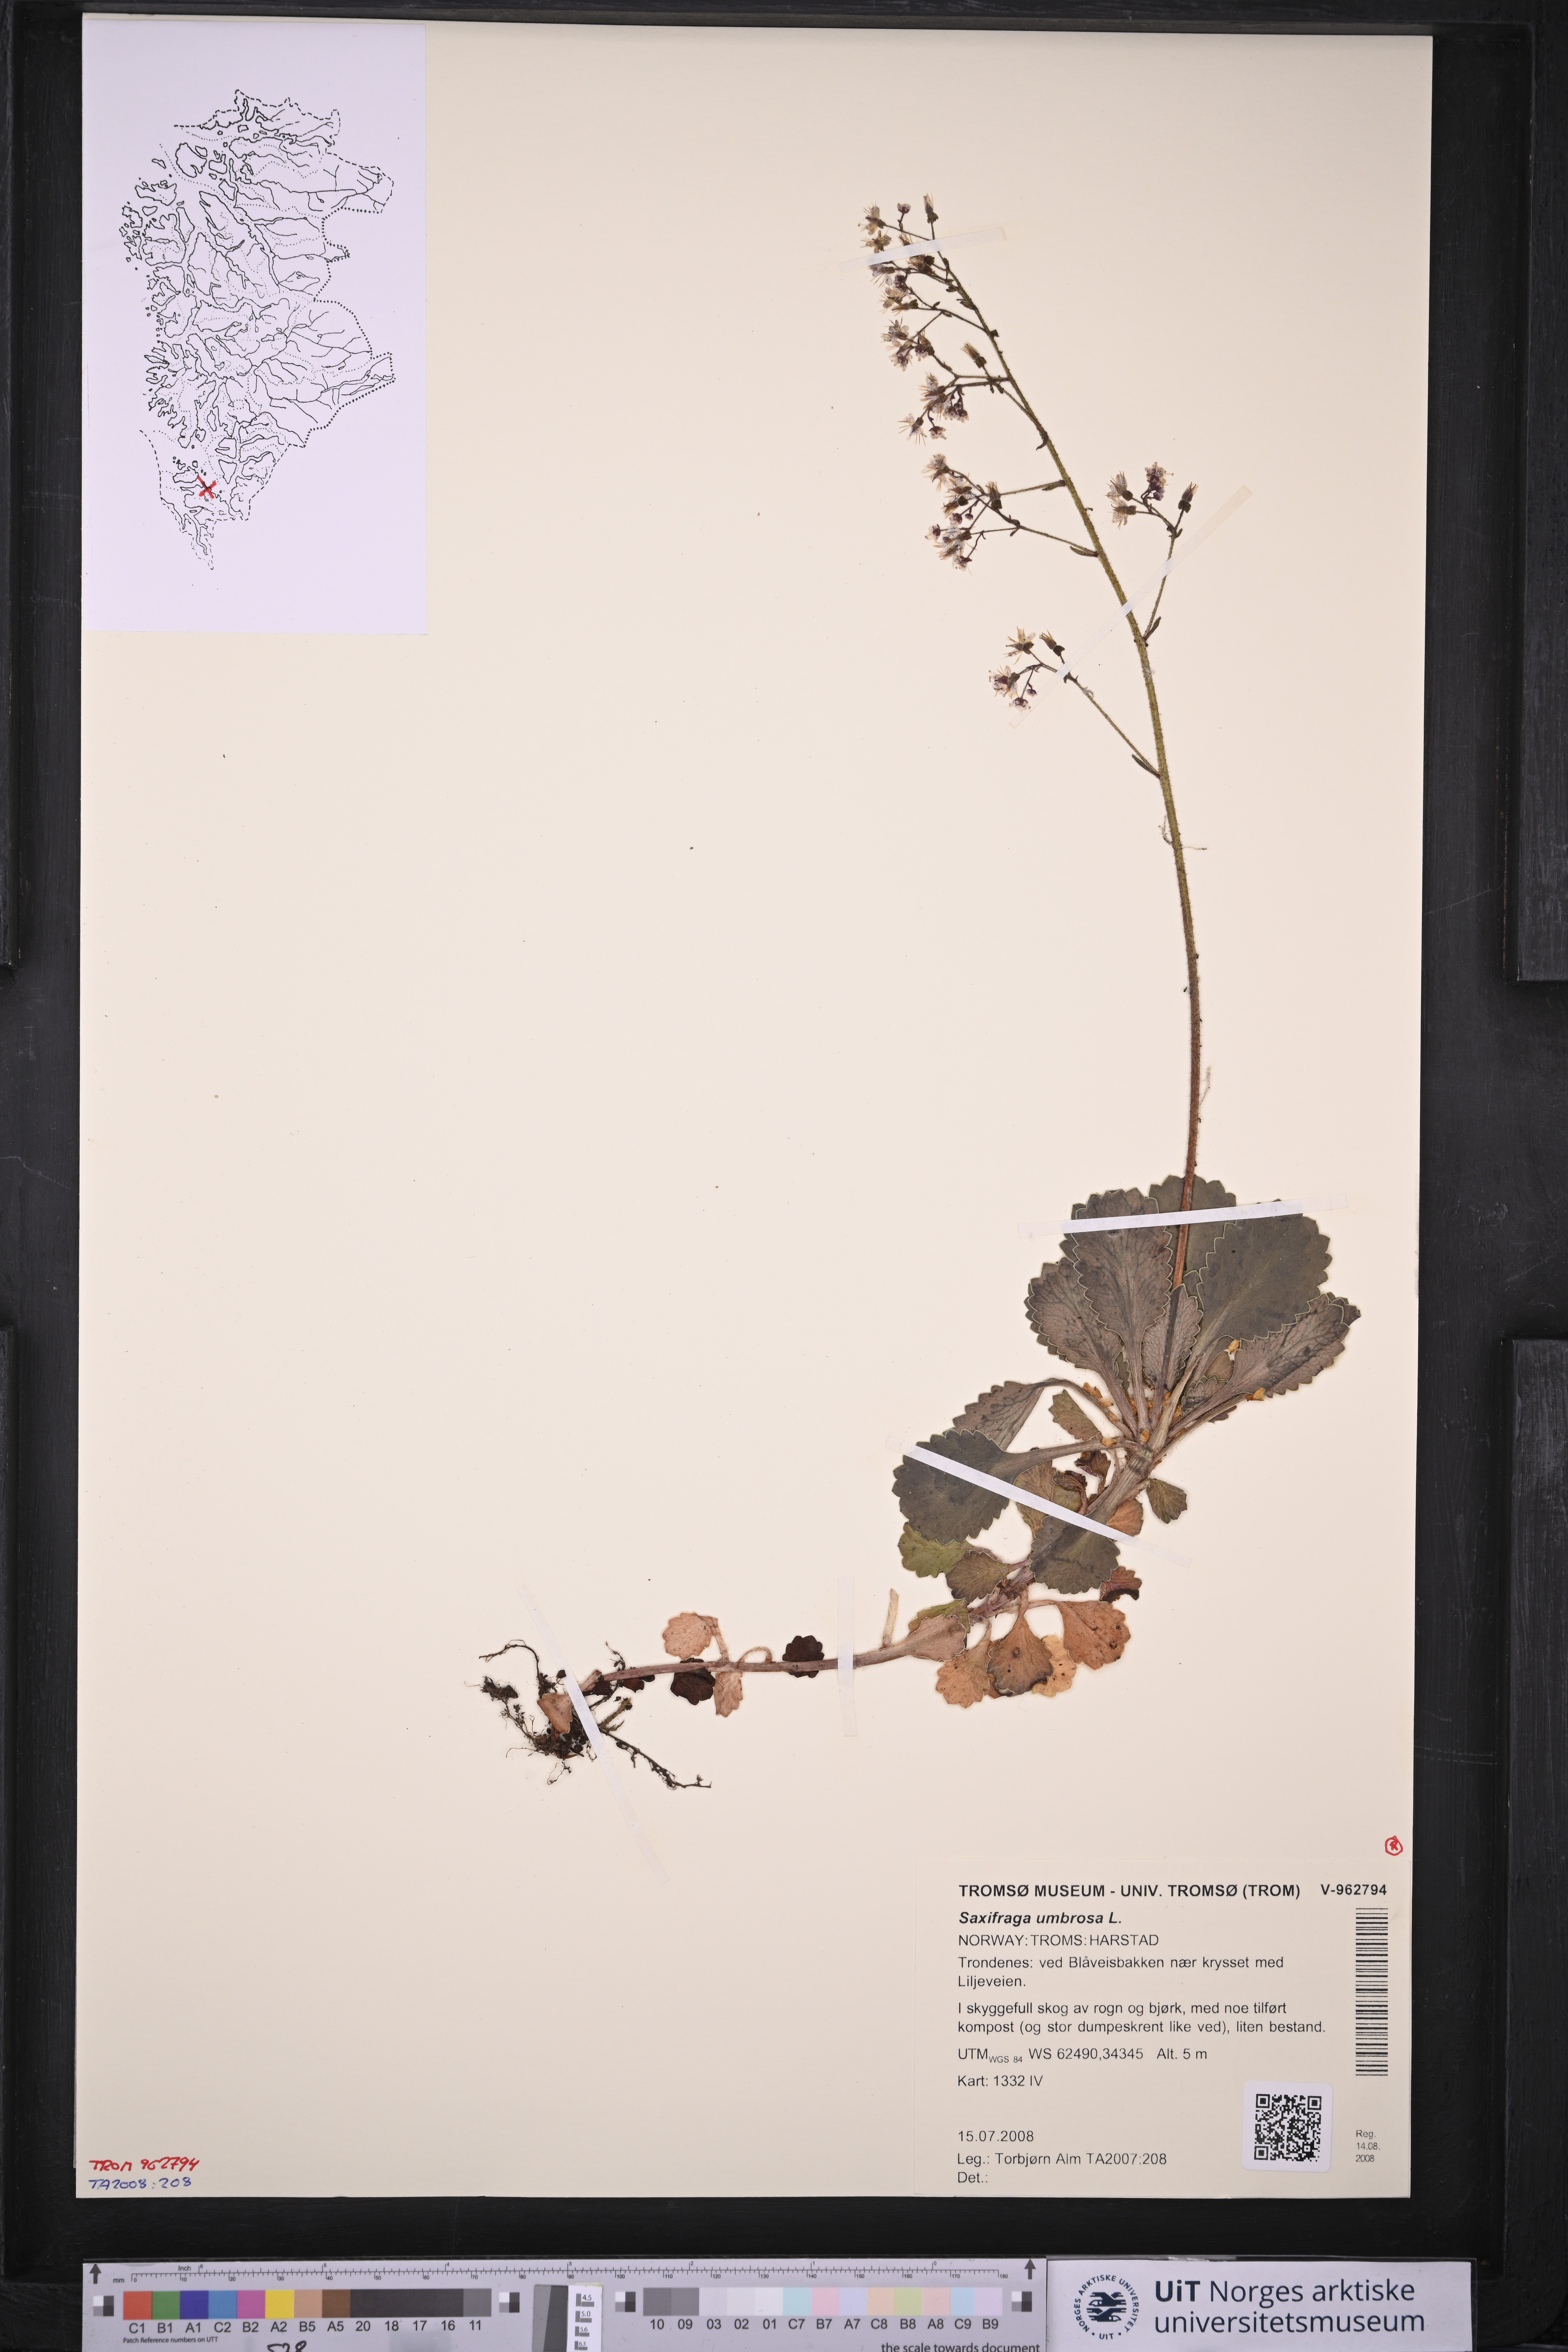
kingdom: Plantae
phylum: Tracheophyta
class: Magnoliopsida
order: Saxifragales
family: Saxifragaceae
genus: Saxifraga
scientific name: Saxifraga umbrosa
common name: Pyrenean saxifrage
